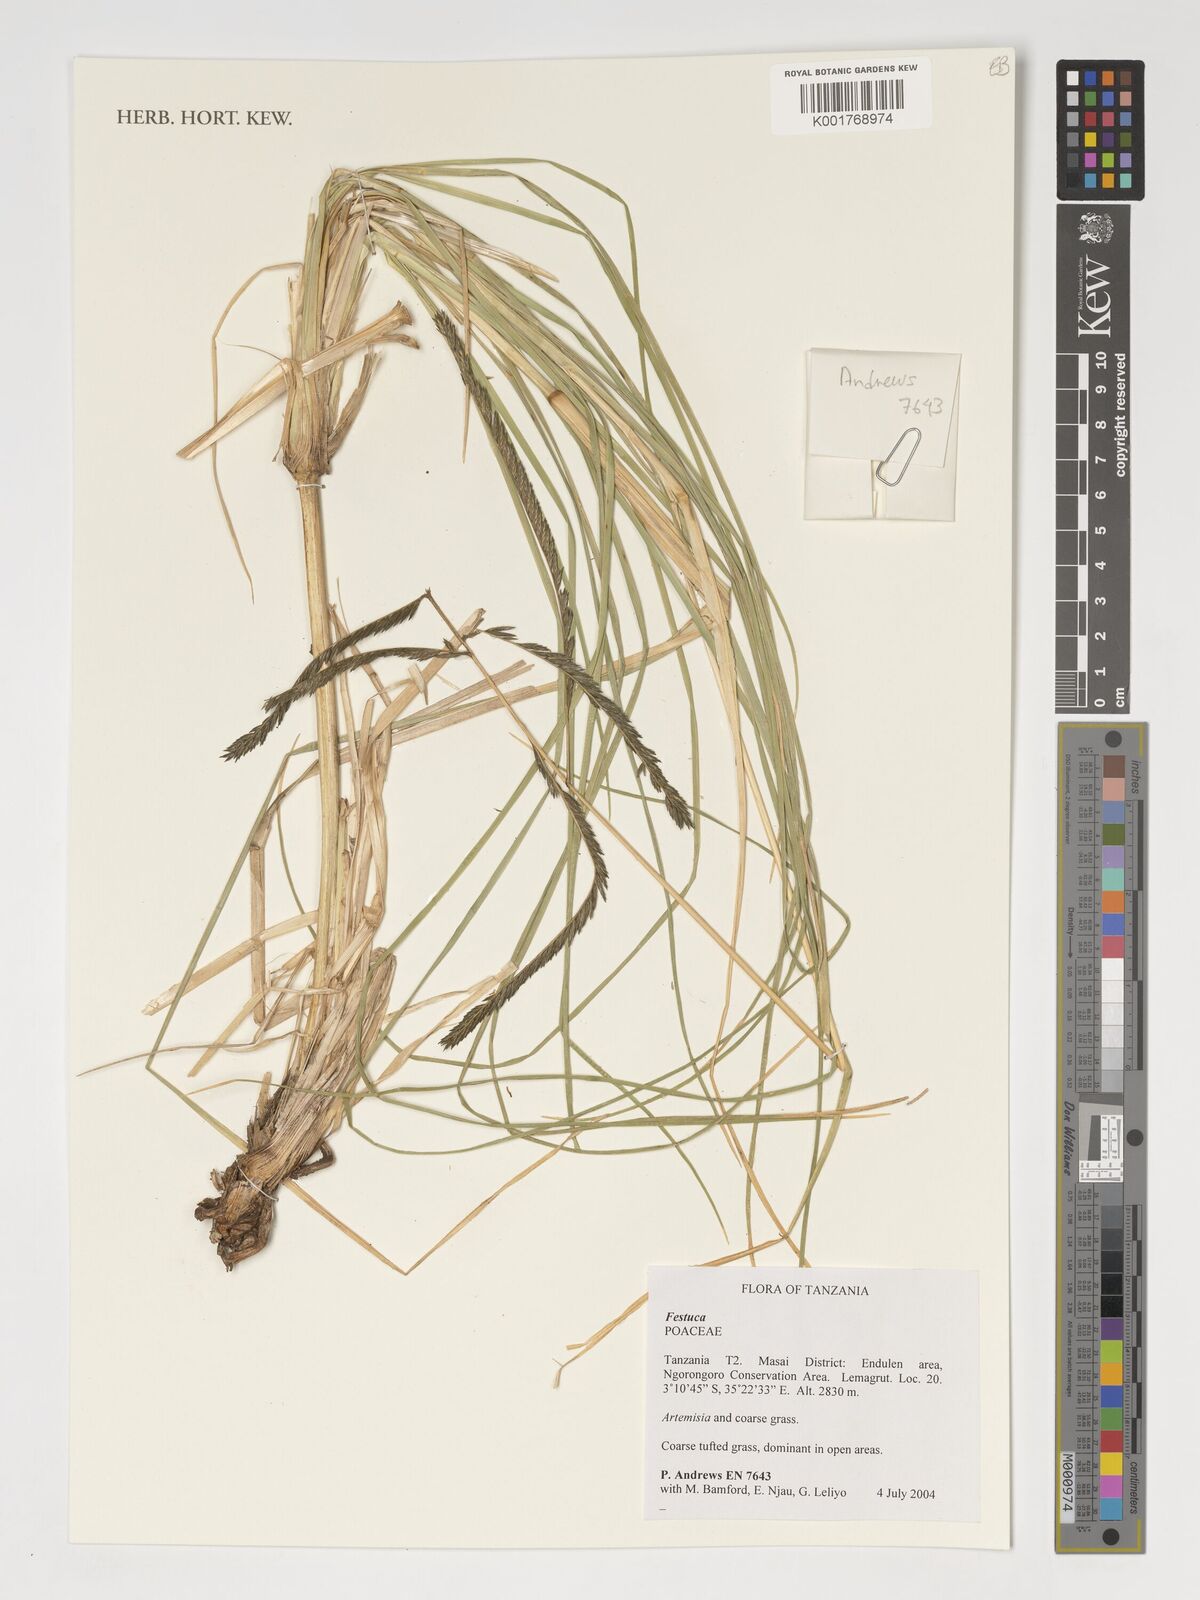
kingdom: Plantae
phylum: Tracheophyta
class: Liliopsida
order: Poales
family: Poaceae
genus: Festuca
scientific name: Festuca
